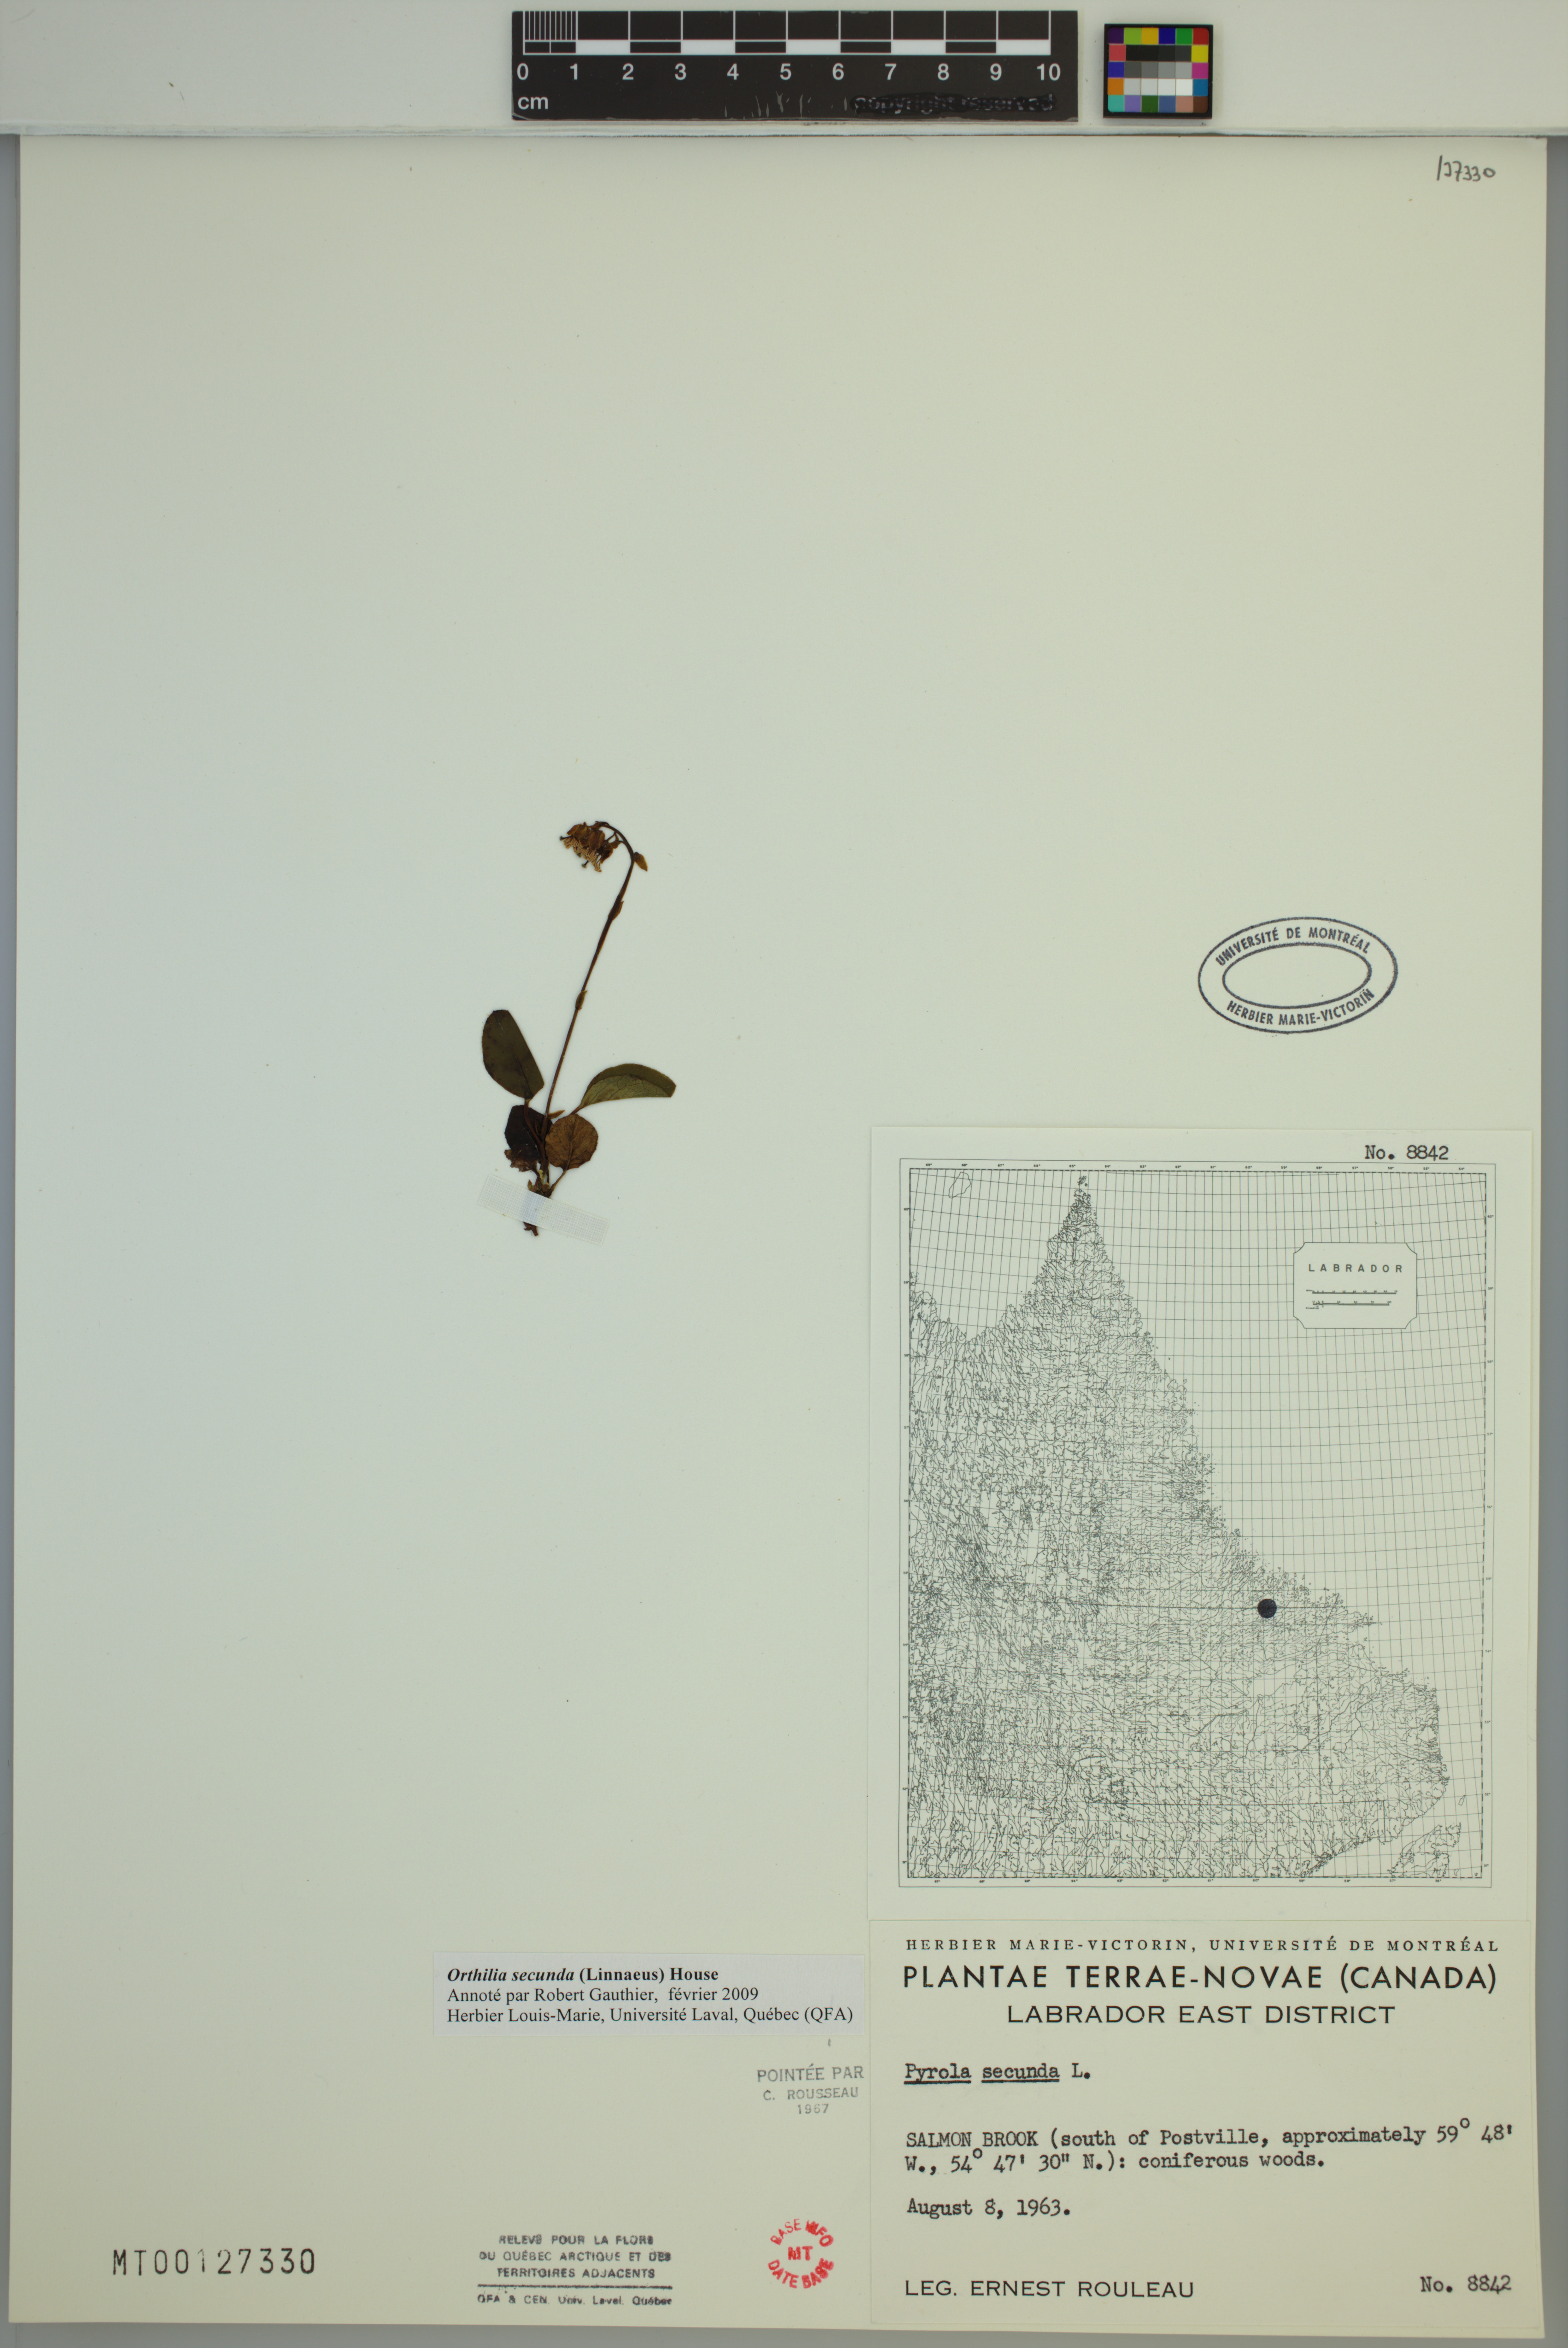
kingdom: Plantae
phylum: Tracheophyta
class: Magnoliopsida
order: Ericales
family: Ericaceae
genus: Orthilia
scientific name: Orthilia secunda
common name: One-sided orthilia
